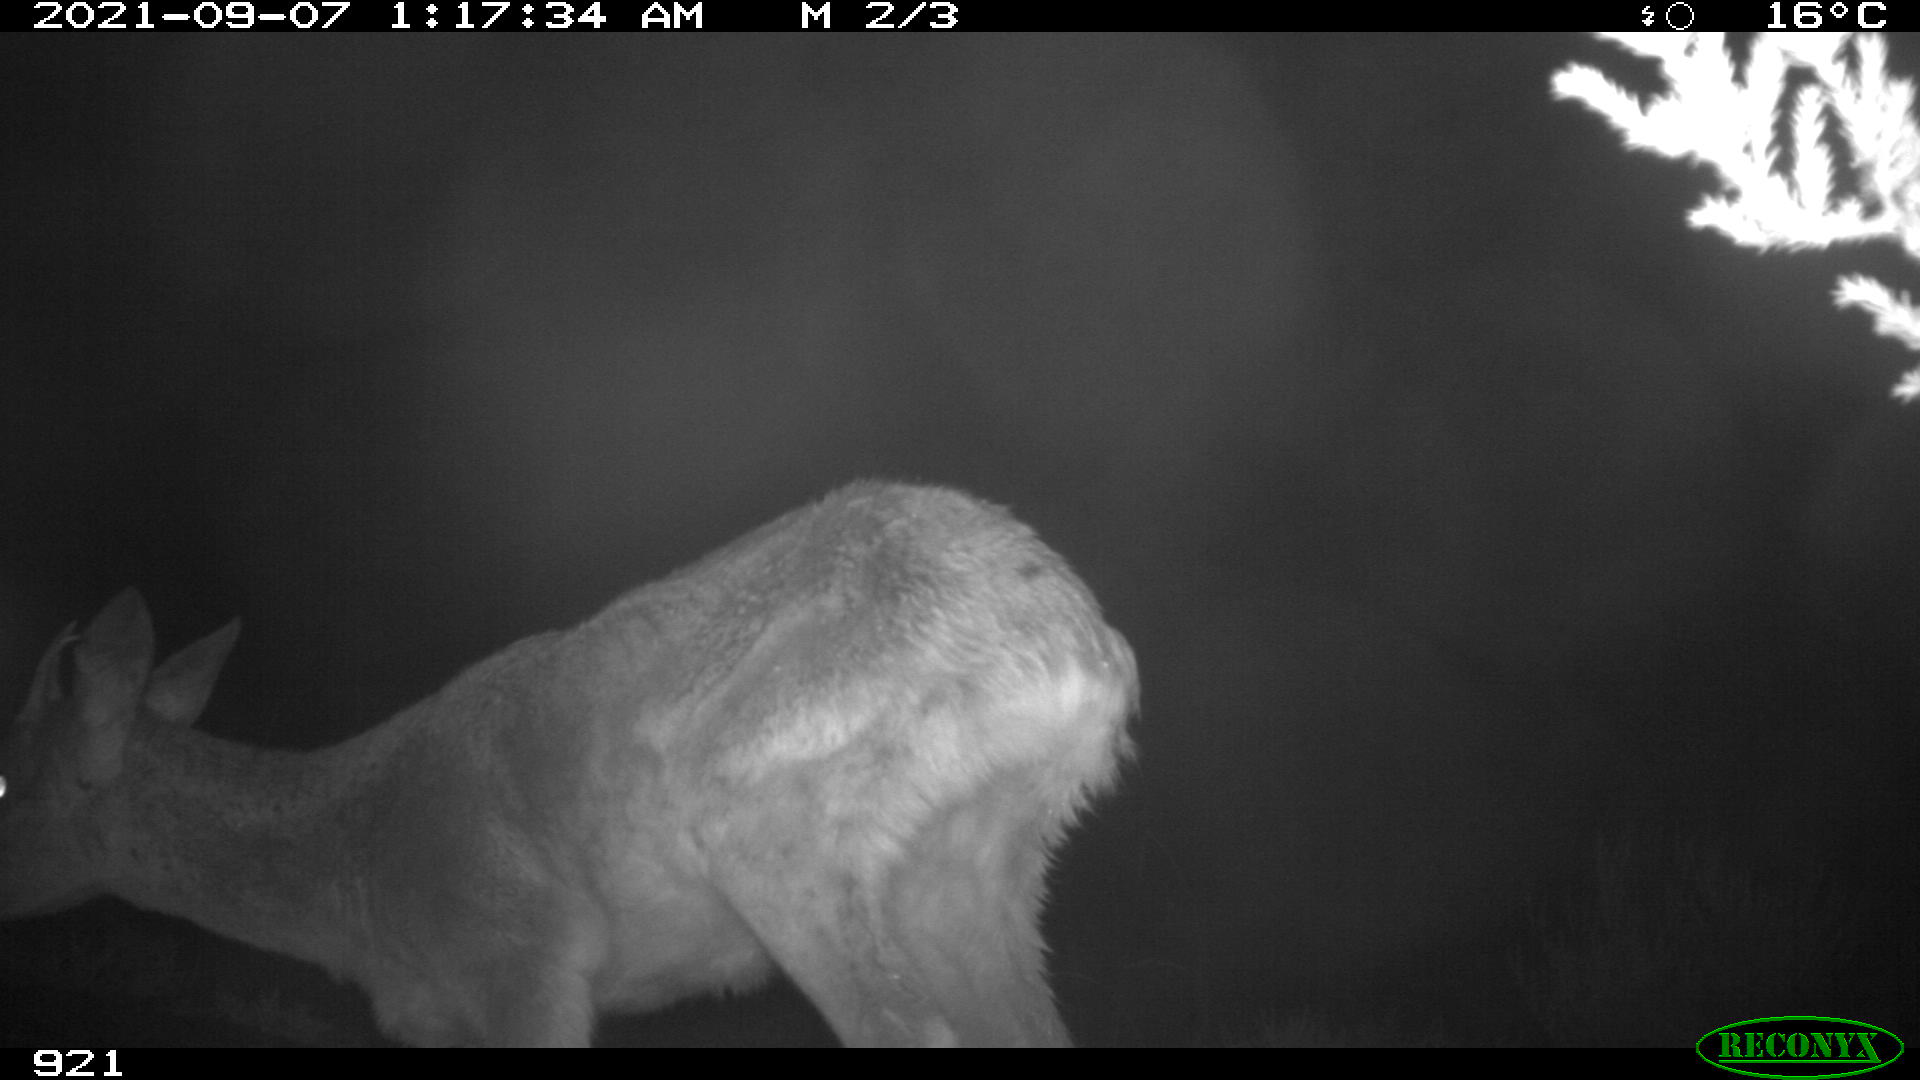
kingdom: Animalia
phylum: Chordata
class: Mammalia
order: Artiodactyla
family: Cervidae
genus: Capreolus
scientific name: Capreolus capreolus
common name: Western roe deer
